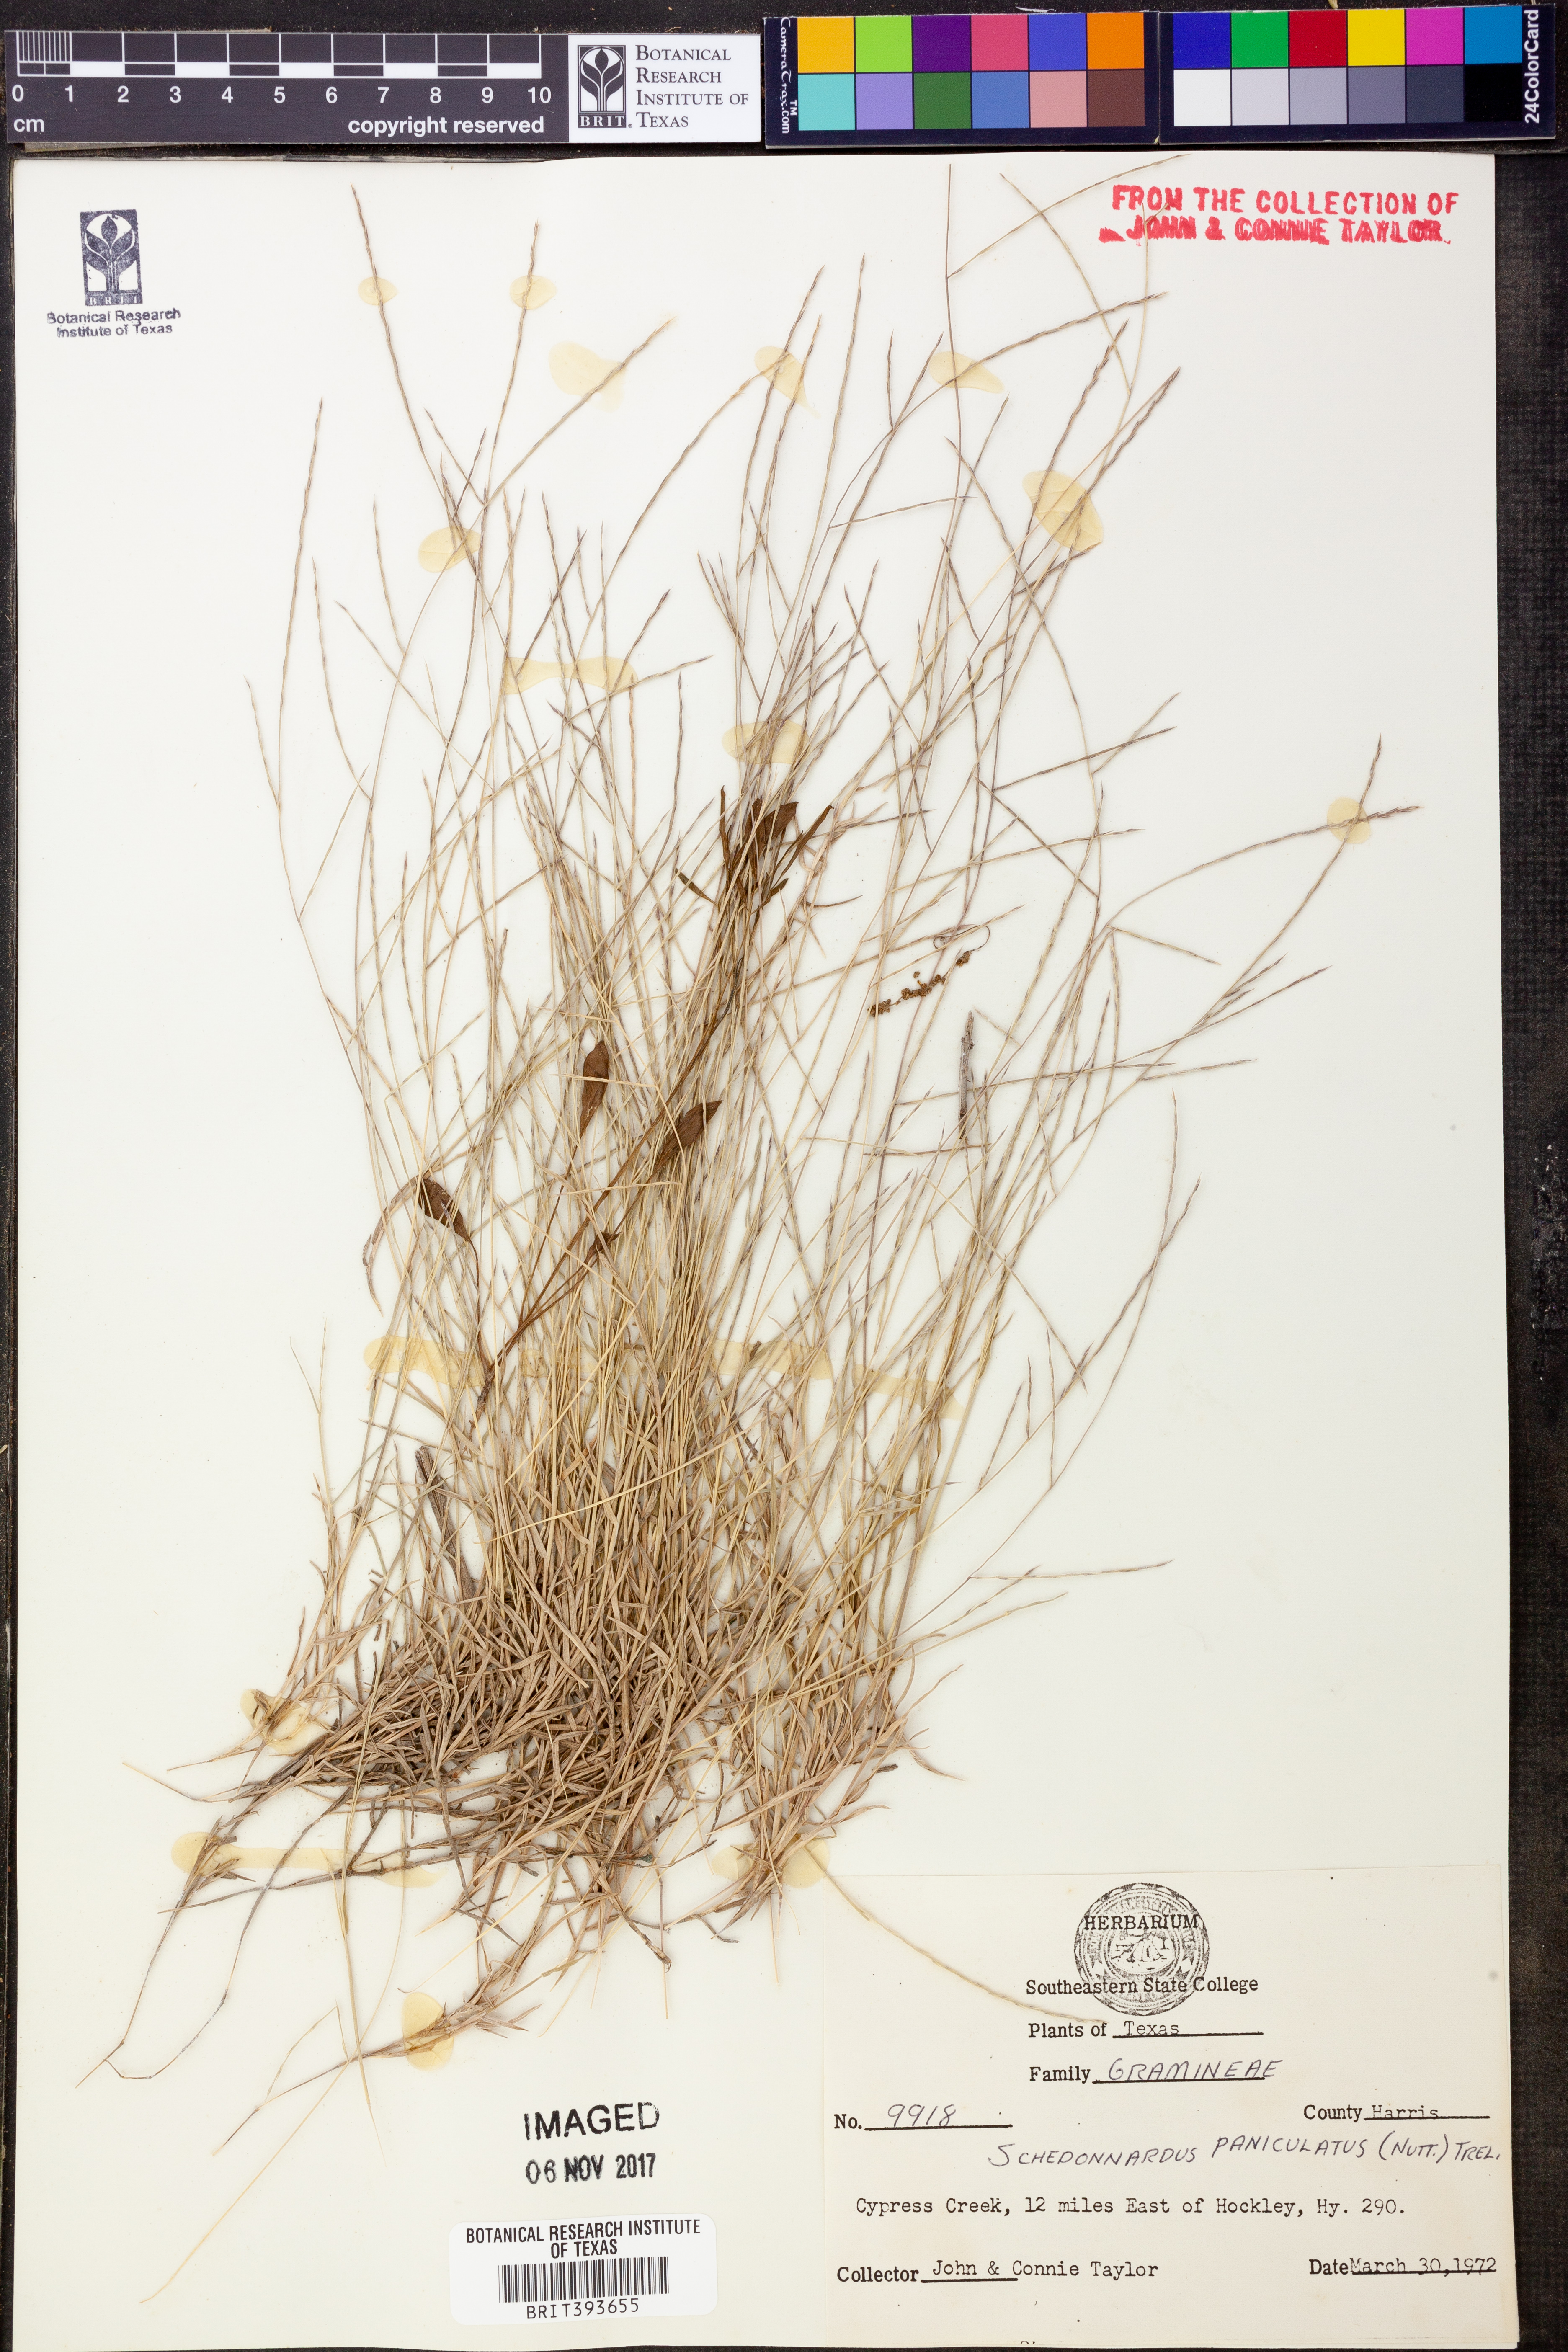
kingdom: Plantae
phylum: Tracheophyta
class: Liliopsida
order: Poales
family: Poaceae
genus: Muhlenbergia
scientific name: Muhlenbergia paniculata
